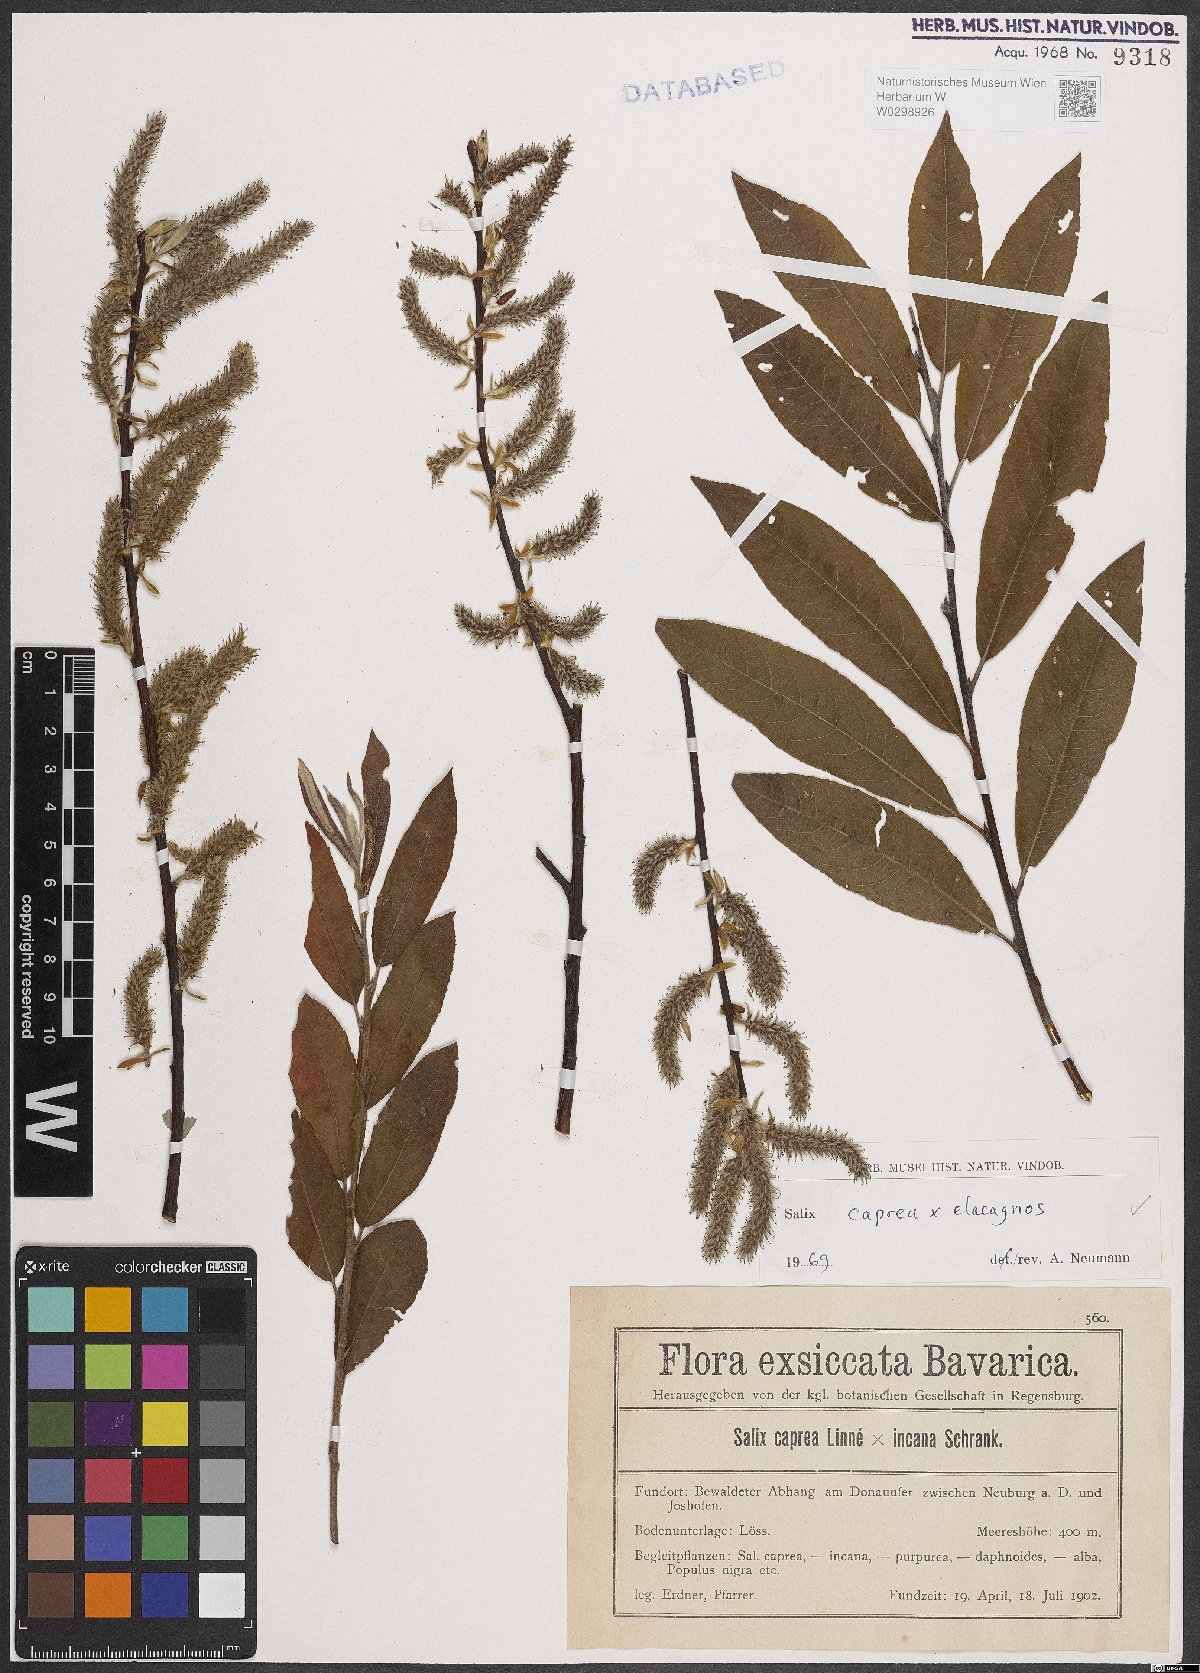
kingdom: Plantae
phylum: Tracheophyta
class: Magnoliopsida
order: Malpighiales
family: Salicaceae
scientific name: Salicaceae
